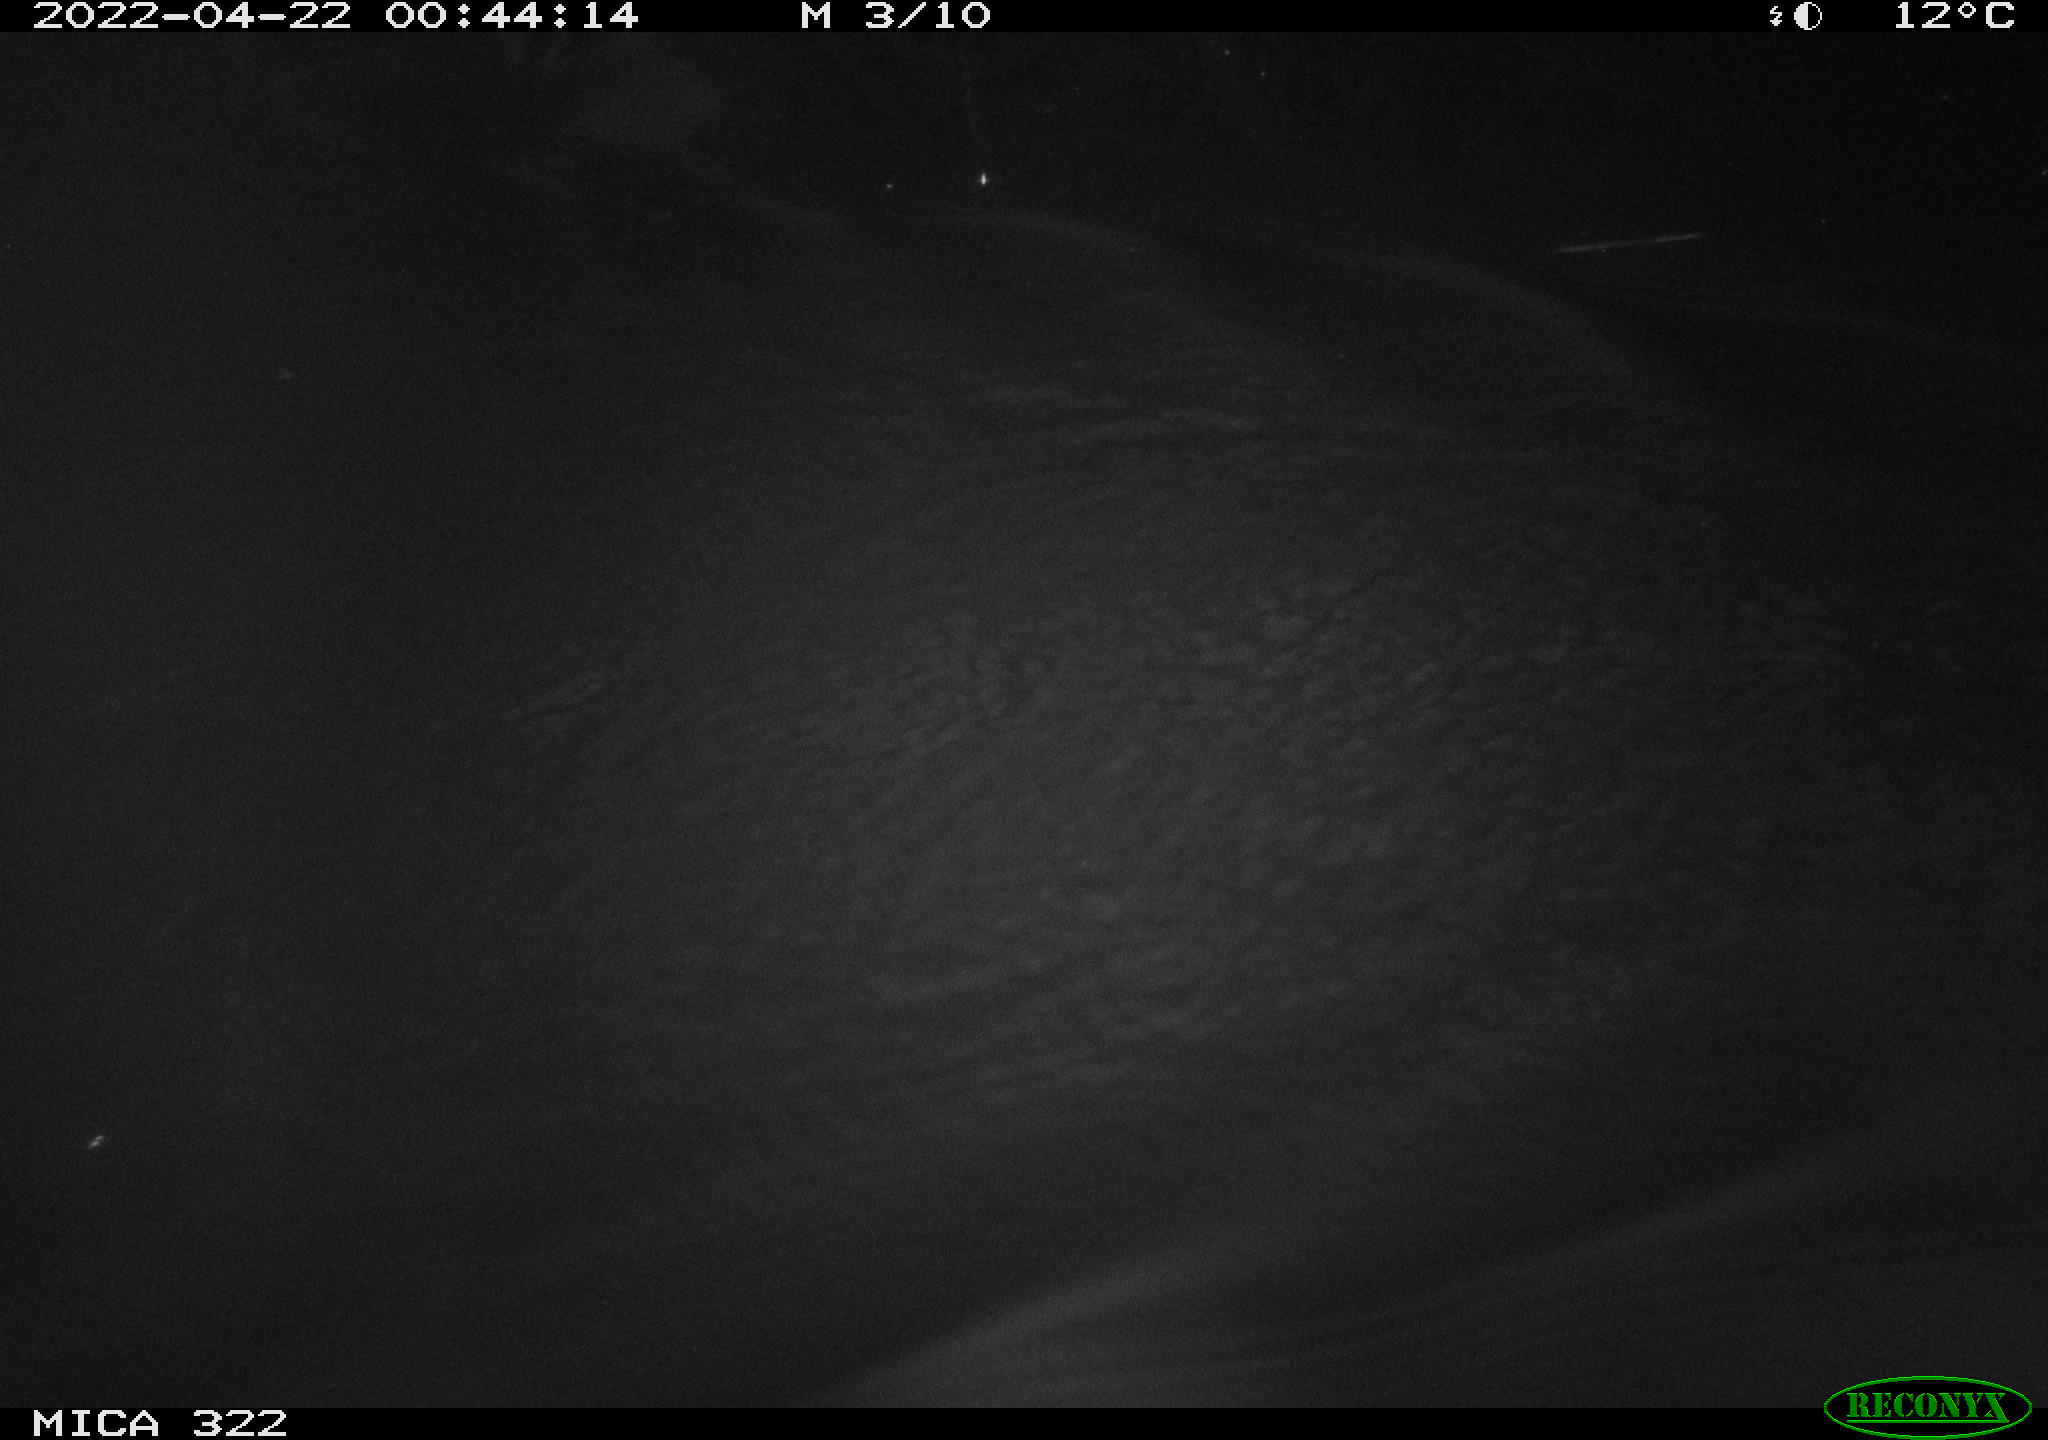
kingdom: Animalia
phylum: Chordata
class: Aves
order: Anseriformes
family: Anatidae
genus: Anas
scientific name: Anas platyrhynchos
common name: Mallard
